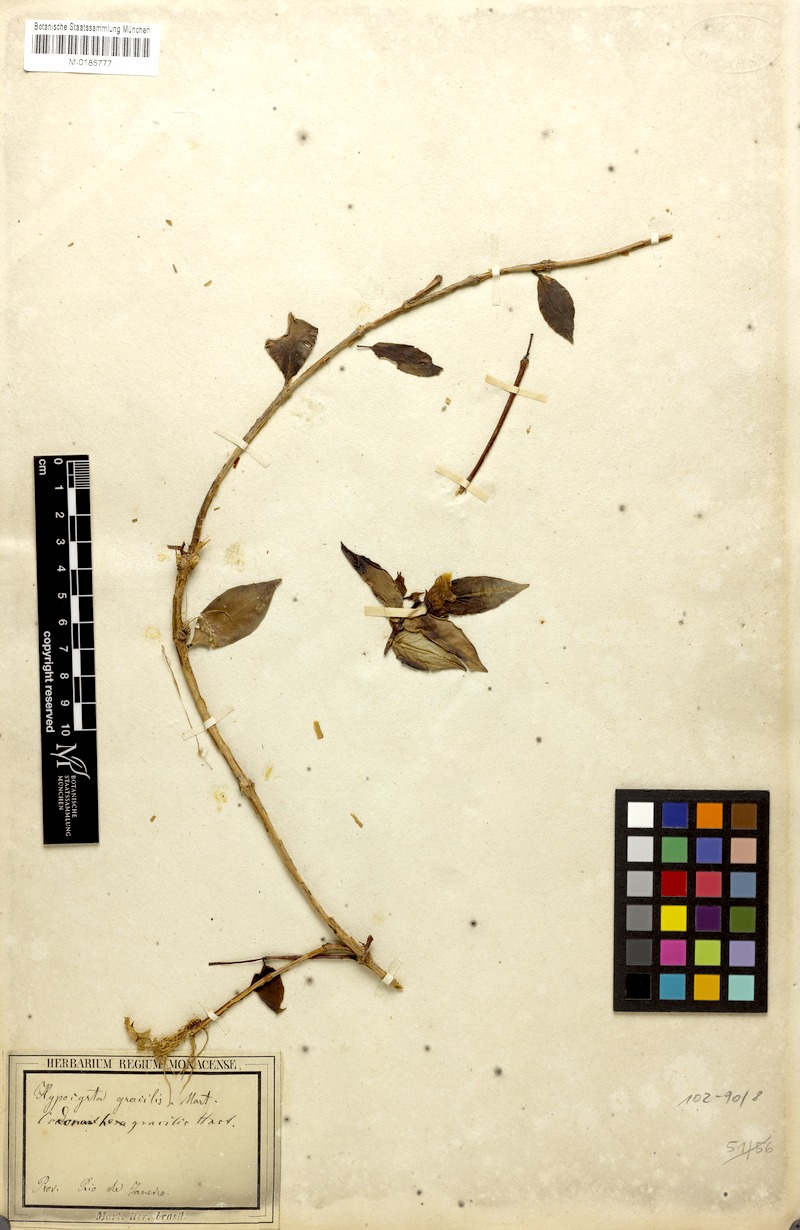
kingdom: Plantae
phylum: Tracheophyta
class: Magnoliopsida
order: Lamiales
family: Gesneriaceae
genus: Codonanthe
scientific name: Codonanthe gracilis
